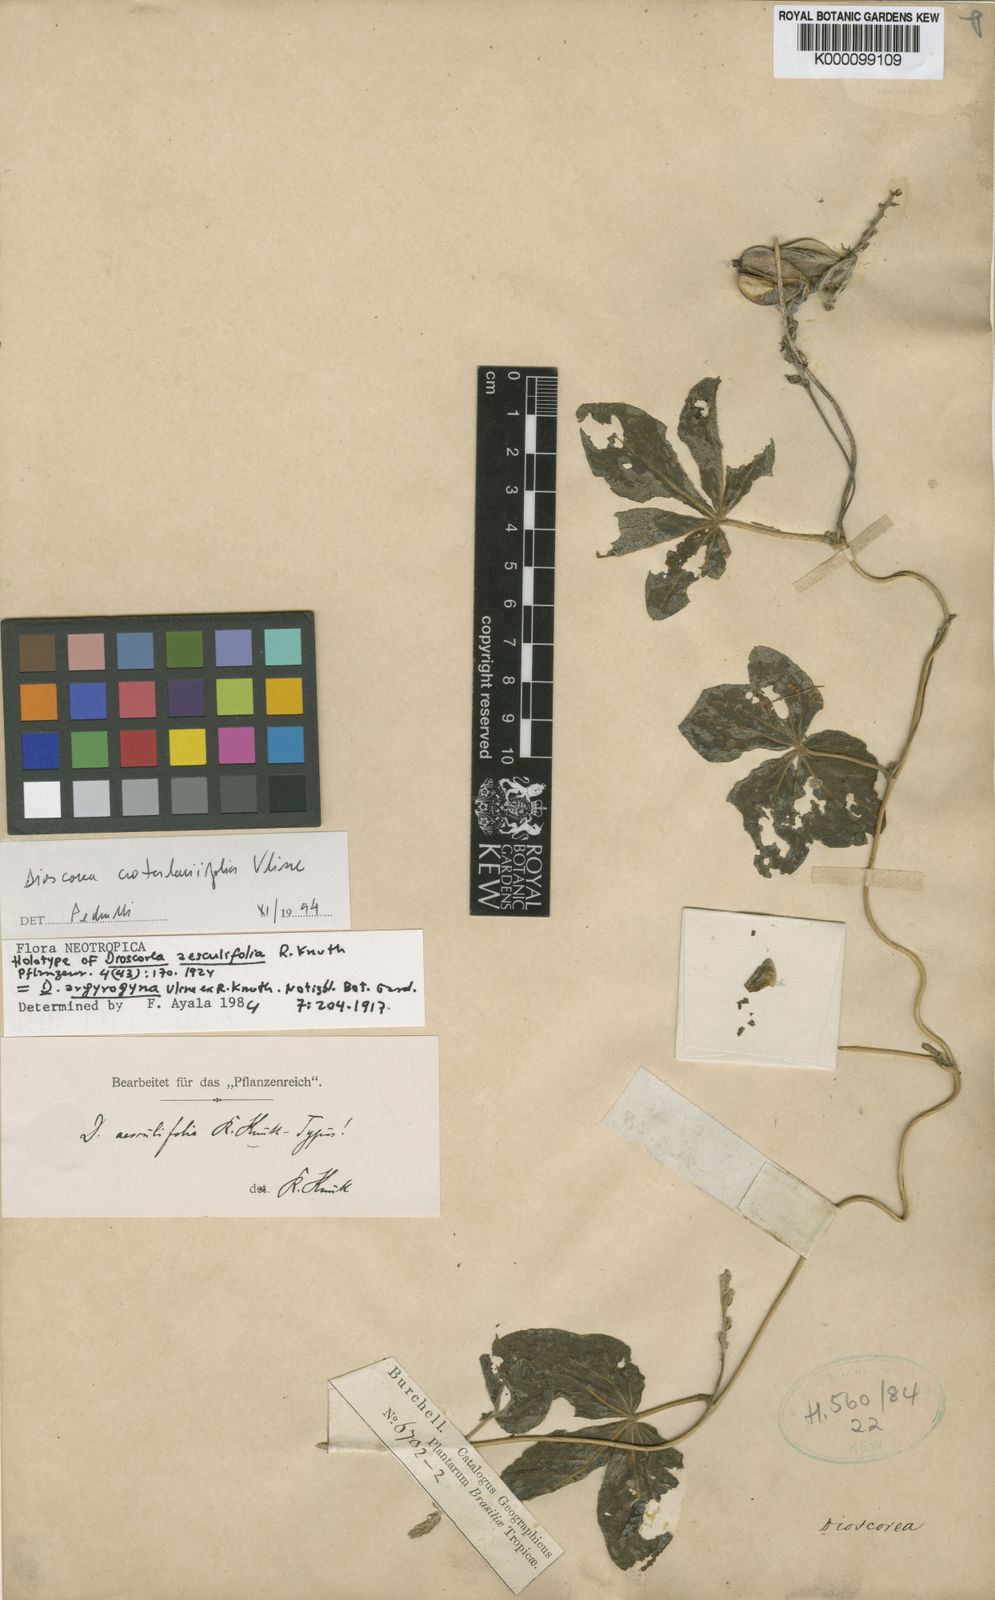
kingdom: Plantae
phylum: Tracheophyta
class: Liliopsida
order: Dioscoreales
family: Dioscoreaceae
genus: Dioscorea
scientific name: Dioscorea aesculifolia
